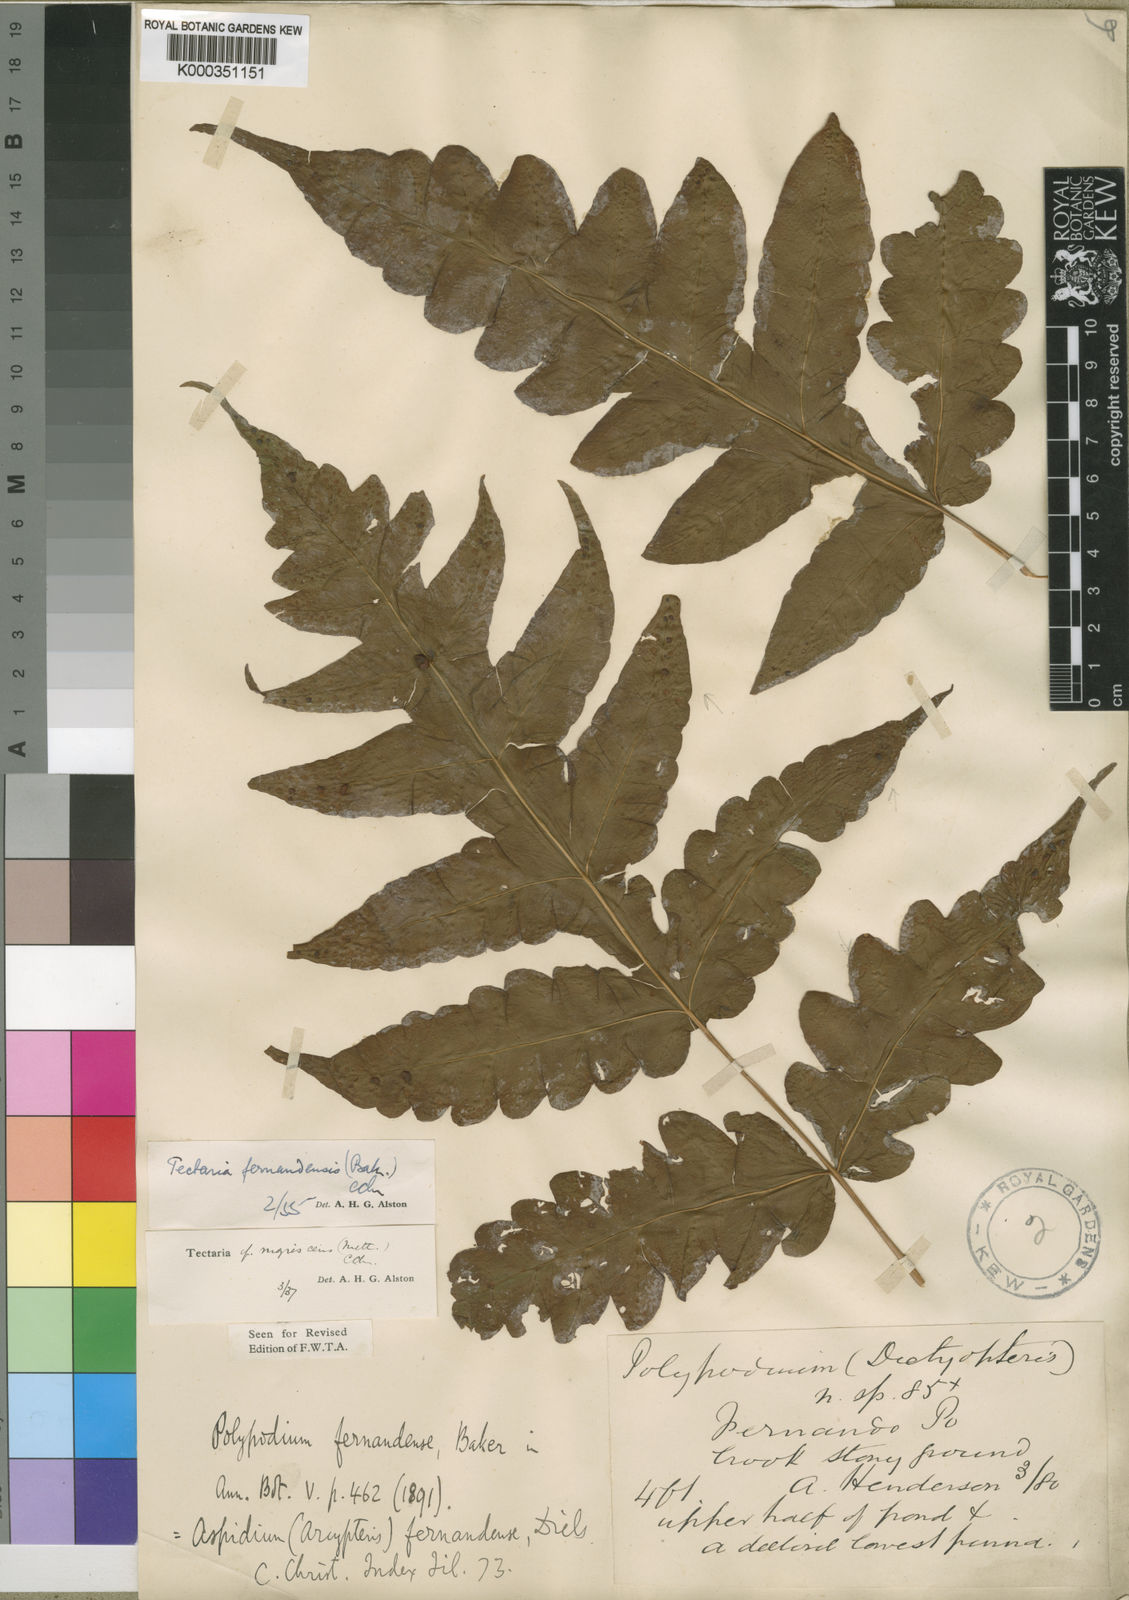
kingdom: Plantae
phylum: Tracheophyta
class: Polypodiopsida
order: Polypodiales
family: Tectariaceae
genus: Tectaria
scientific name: Tectaria fernandensis
